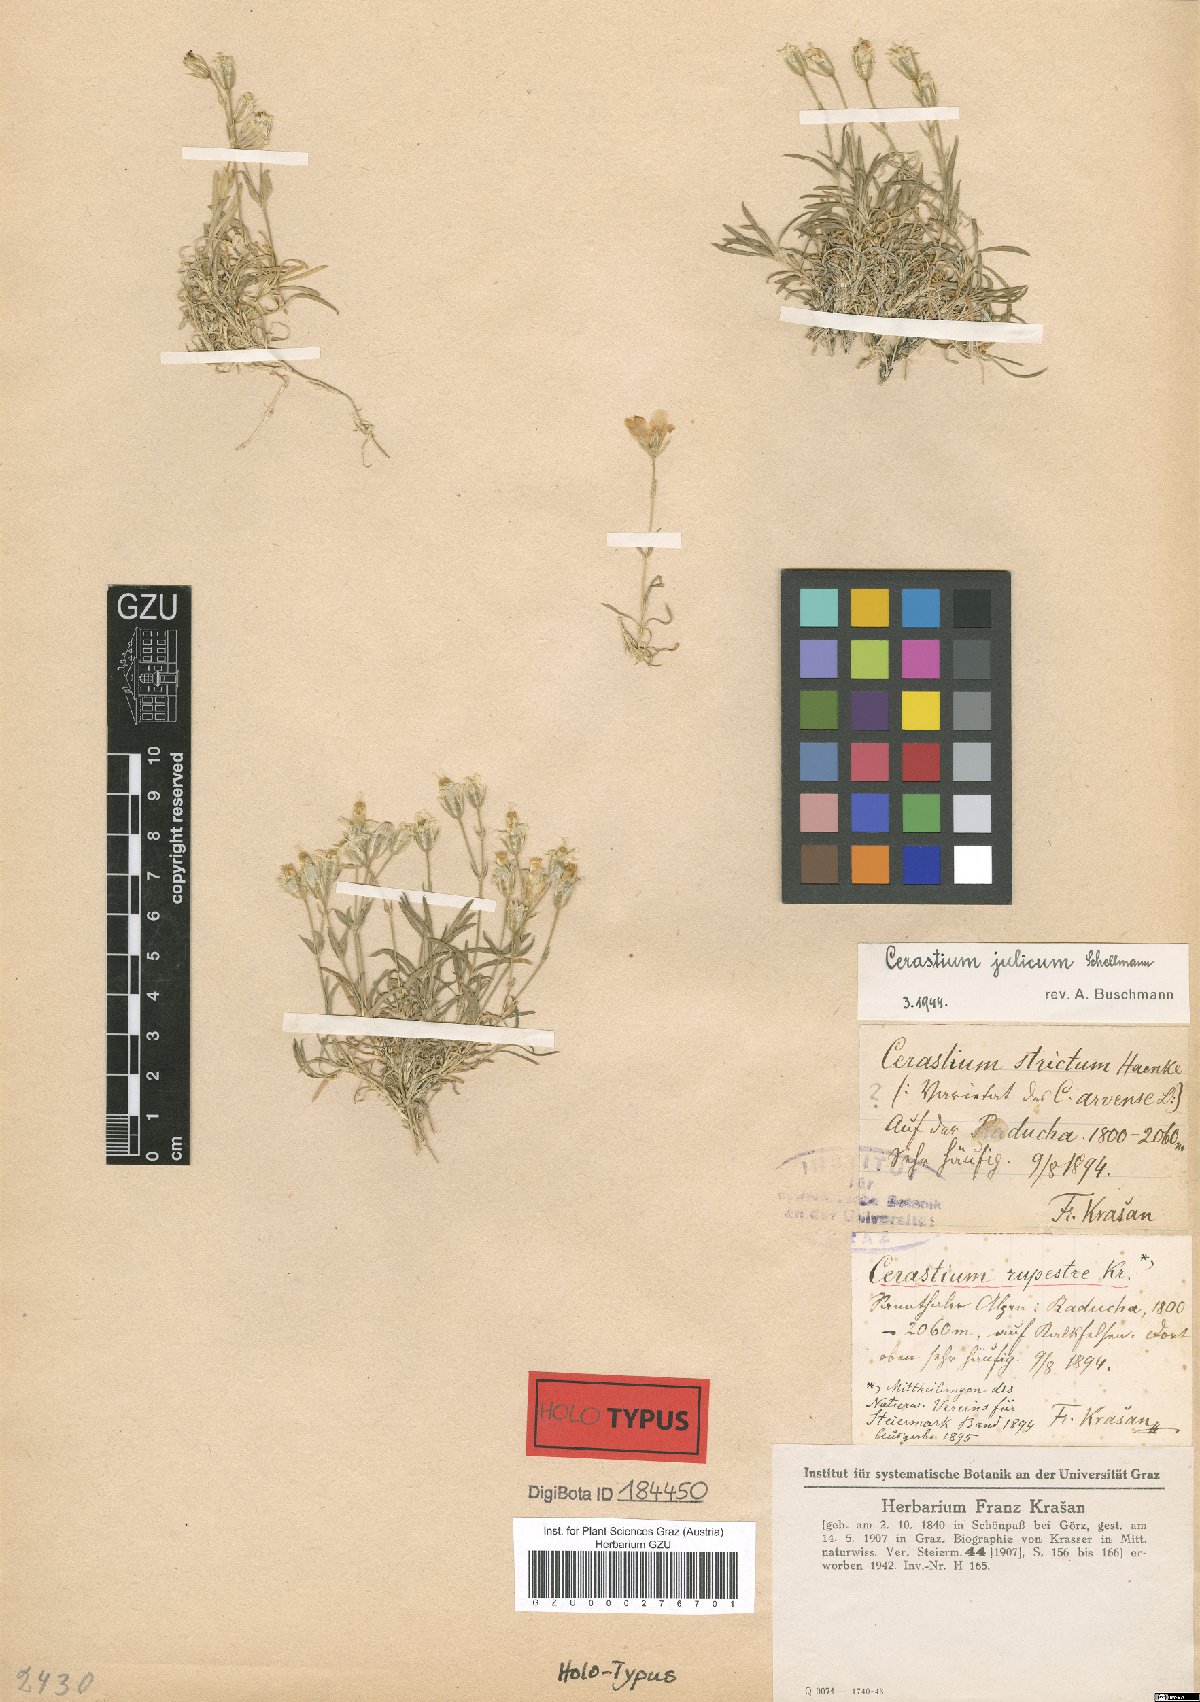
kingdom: Plantae
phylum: Tracheophyta
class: Magnoliopsida
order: Caryophyllales
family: Caryophyllaceae
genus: Cerastium
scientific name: Cerastium julicum
